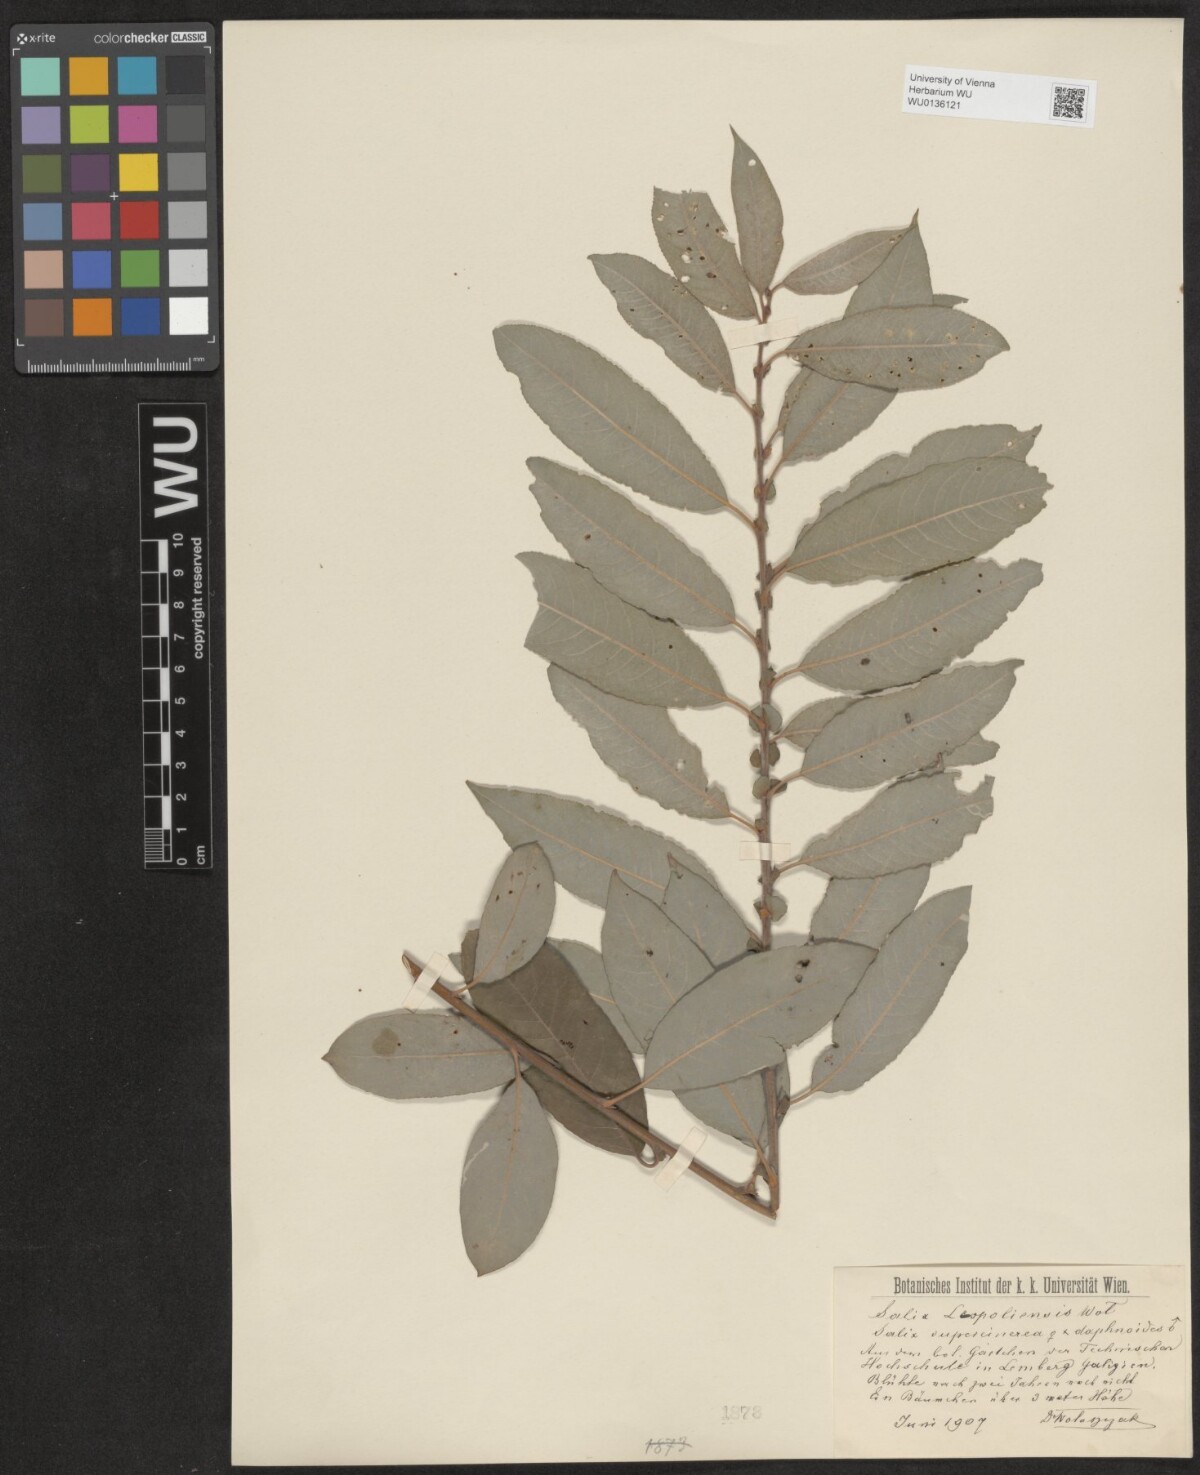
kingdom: Plantae
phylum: Tracheophyta
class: Magnoliopsida
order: Malpighiales
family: Salicaceae
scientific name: Salicaceae
